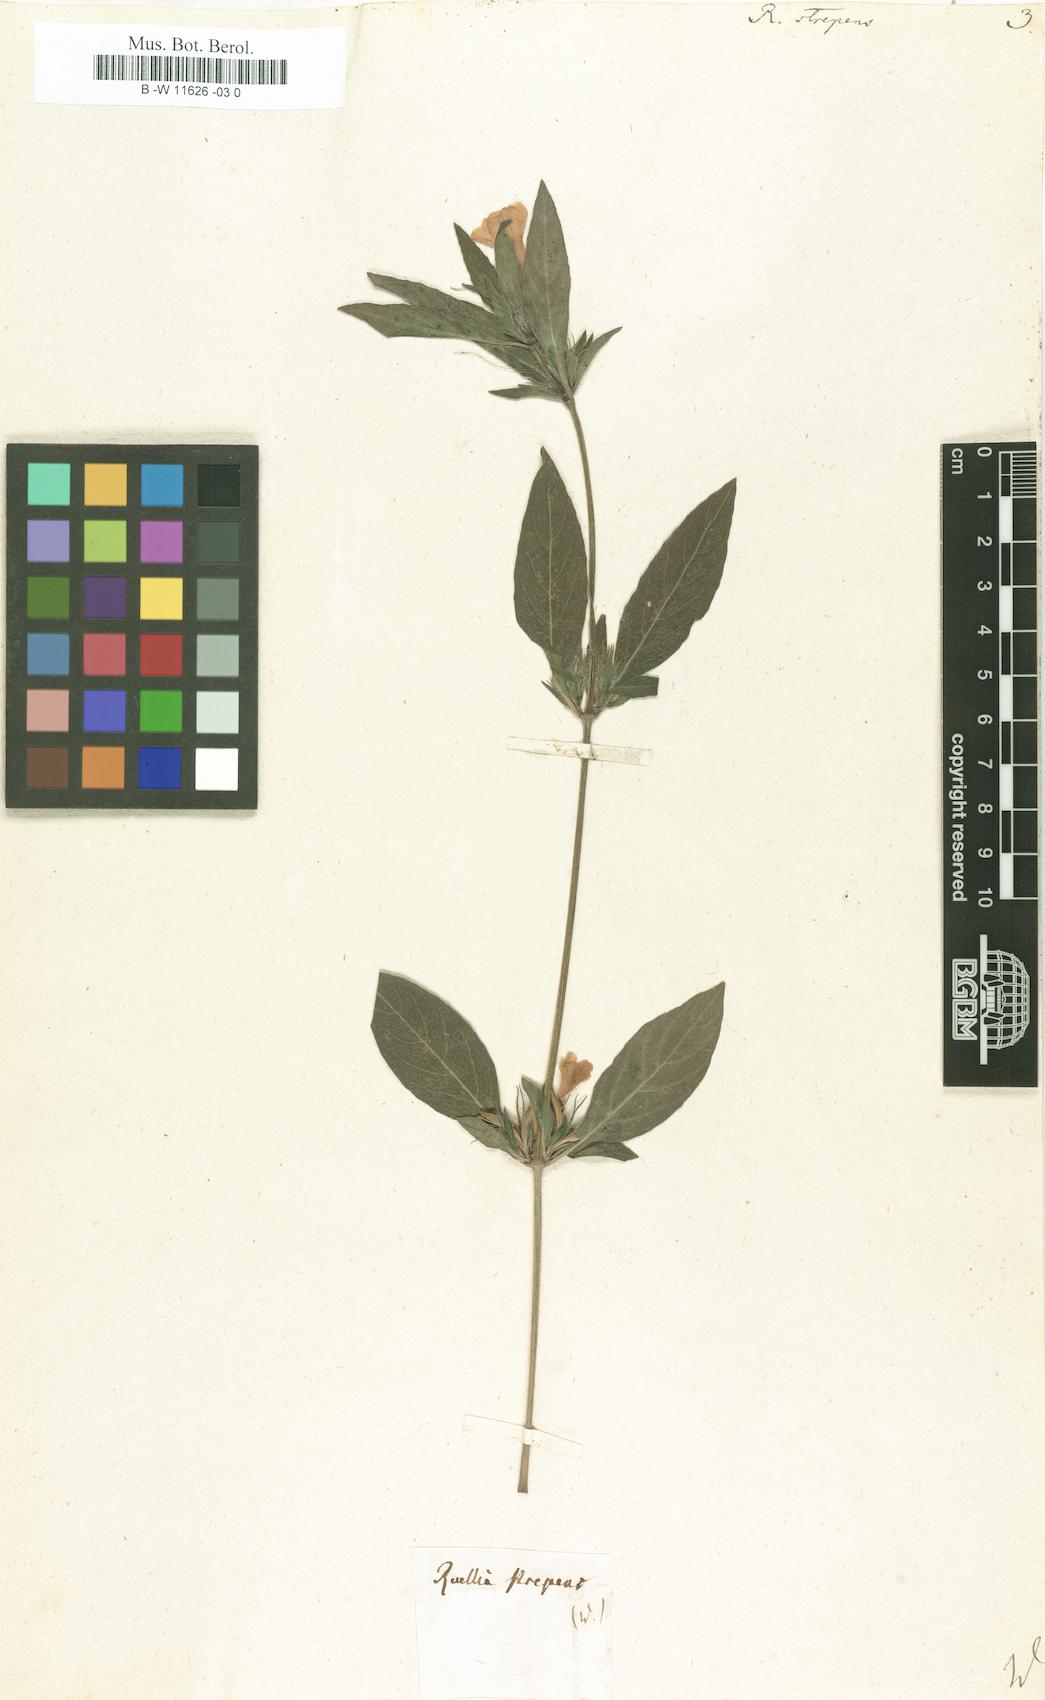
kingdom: Plantae
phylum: Tracheophyta
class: Magnoliopsida
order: Lamiales
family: Acanthaceae
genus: Ruellia
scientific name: Ruellia strepens
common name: Limestone wild petunia
